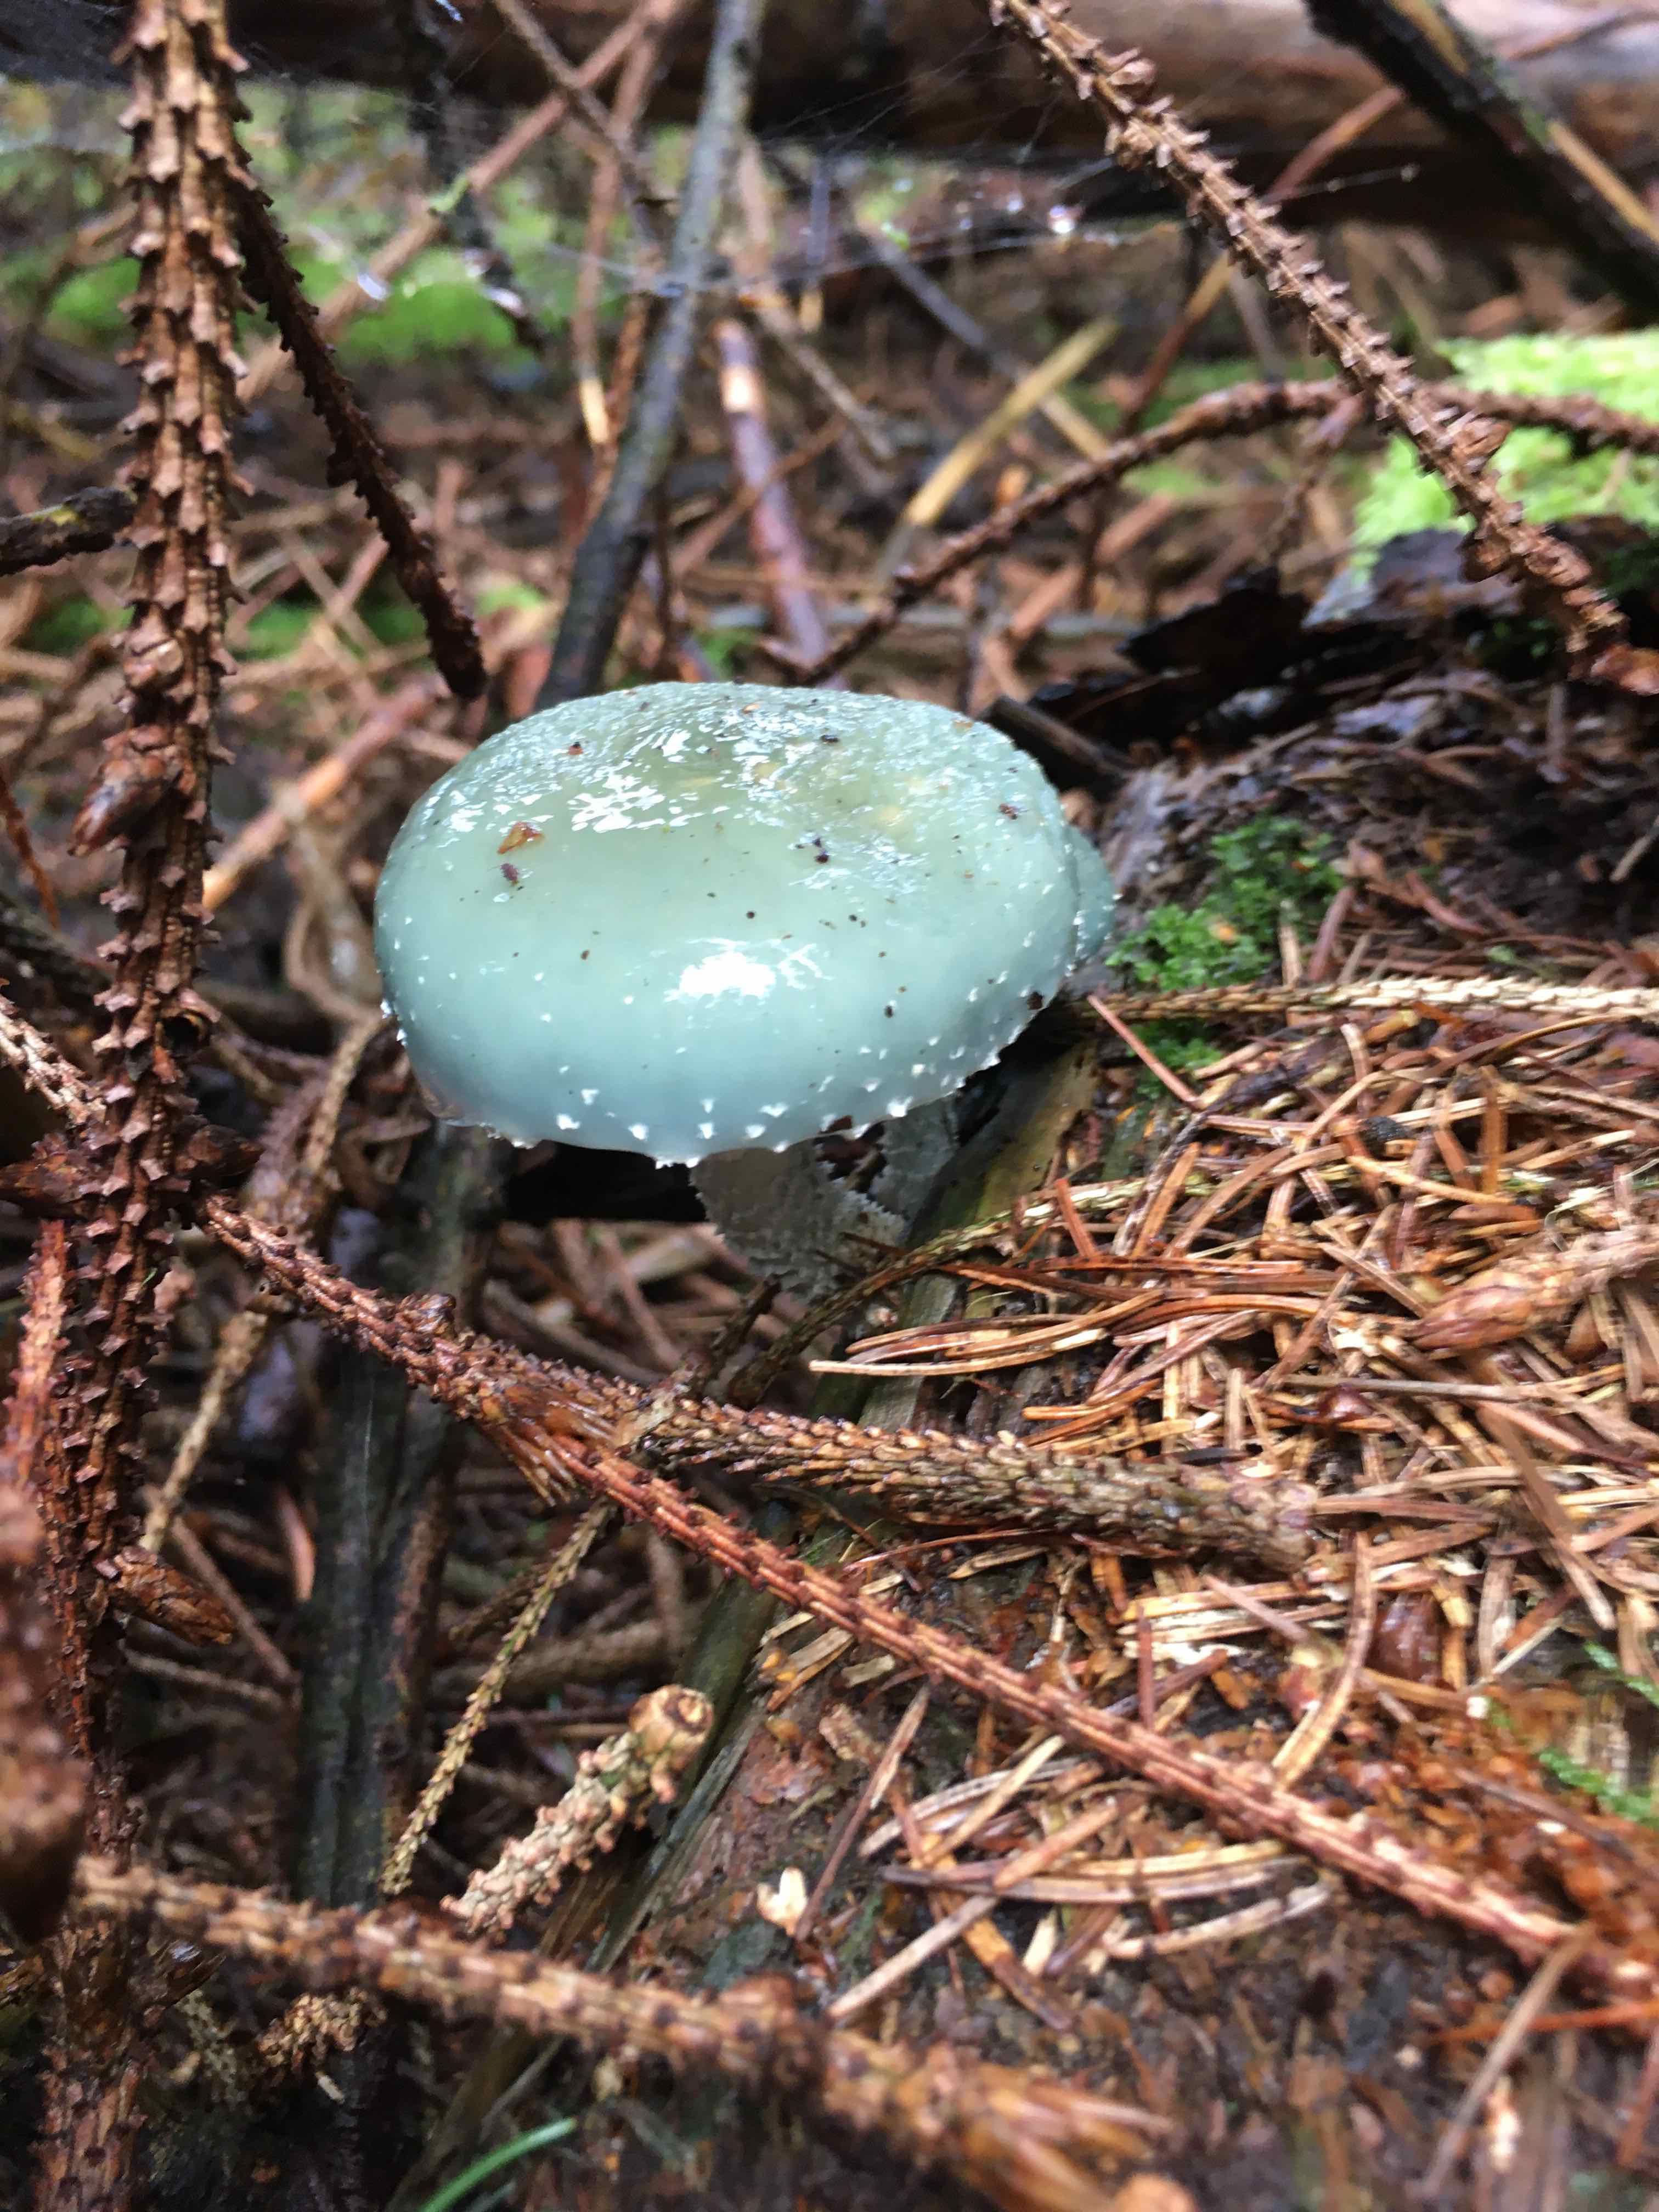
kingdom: Fungi
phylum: Basidiomycota
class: Agaricomycetes
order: Agaricales
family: Strophariaceae
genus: Stropharia
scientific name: Stropharia aeruginosa
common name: spanskgrøn bredblad
